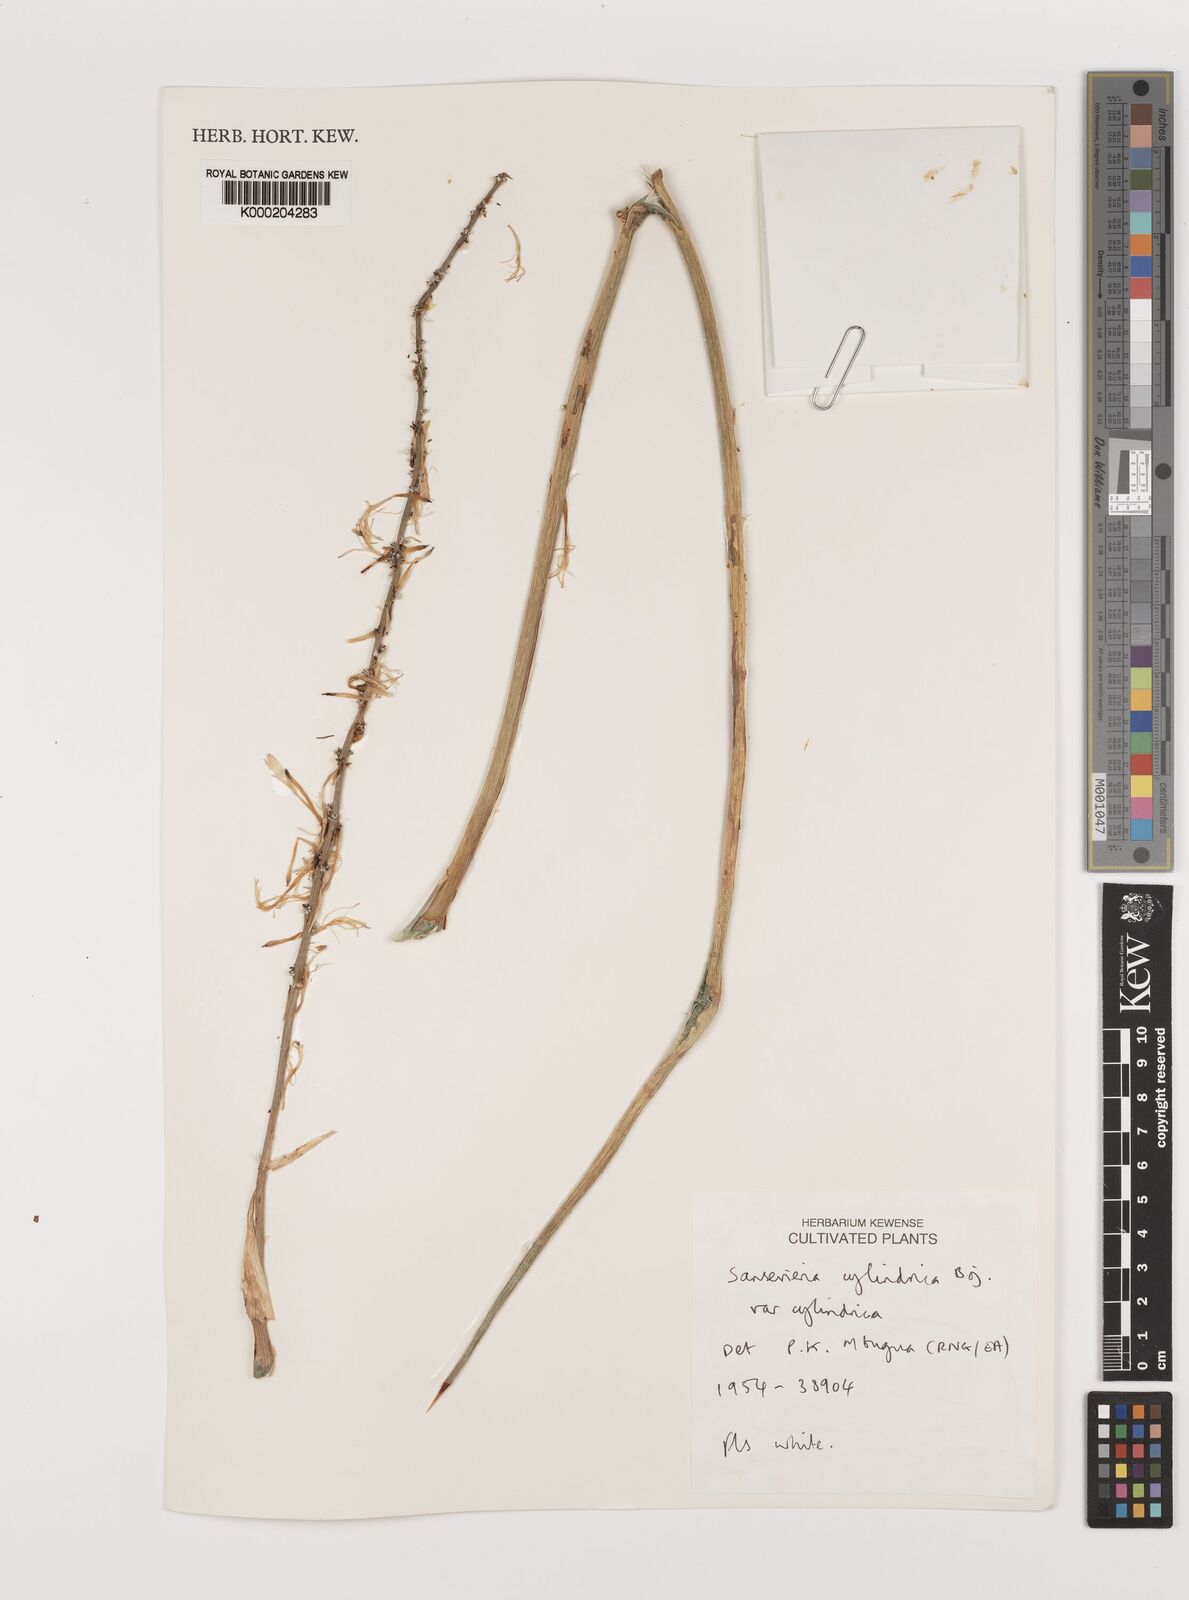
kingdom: Plantae
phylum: Tracheophyta
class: Liliopsida
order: Asparagales
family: Asparagaceae
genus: Dracaena
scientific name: Dracaena angolensis
